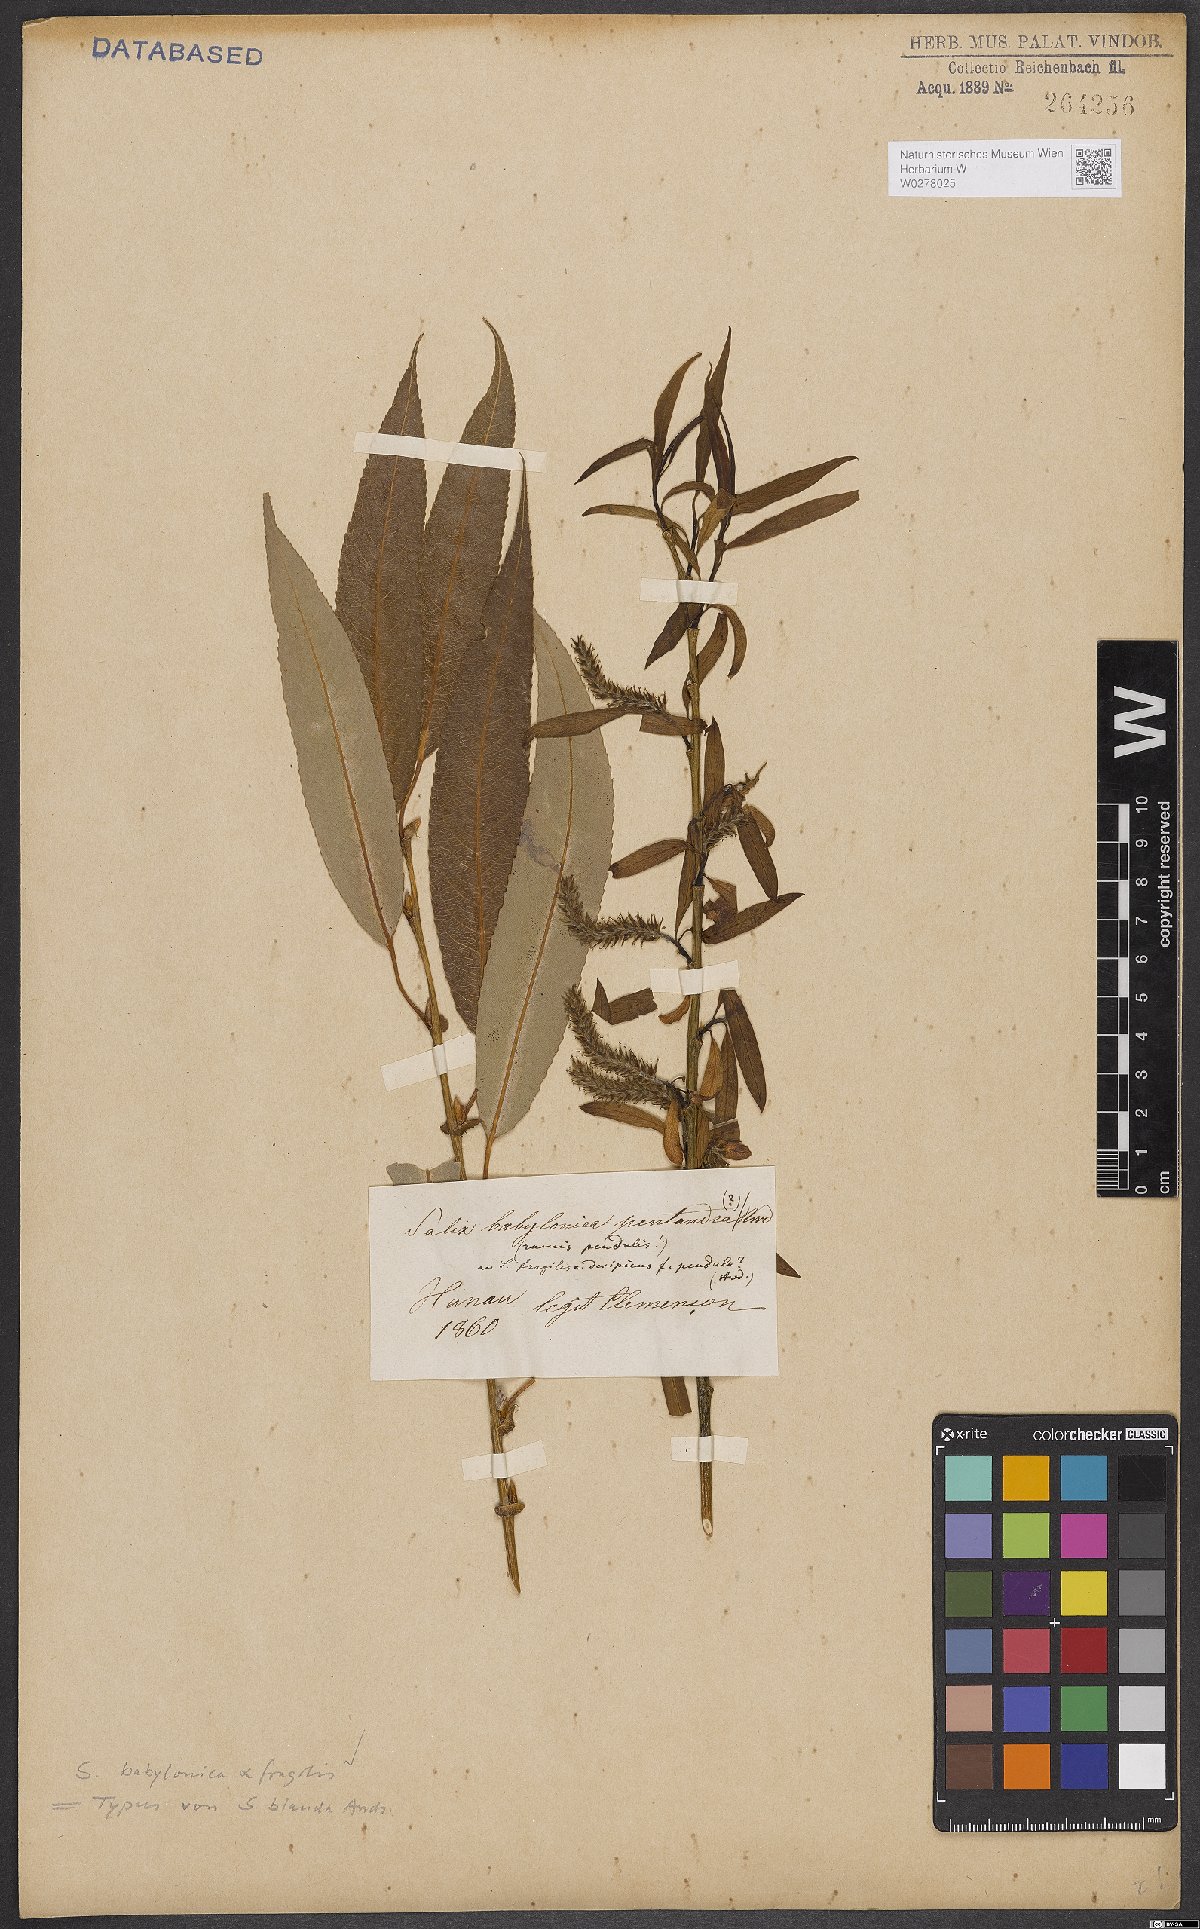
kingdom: Plantae
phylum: Tracheophyta
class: Magnoliopsida
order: Malpighiales
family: Salicaceae
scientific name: Salicaceae
